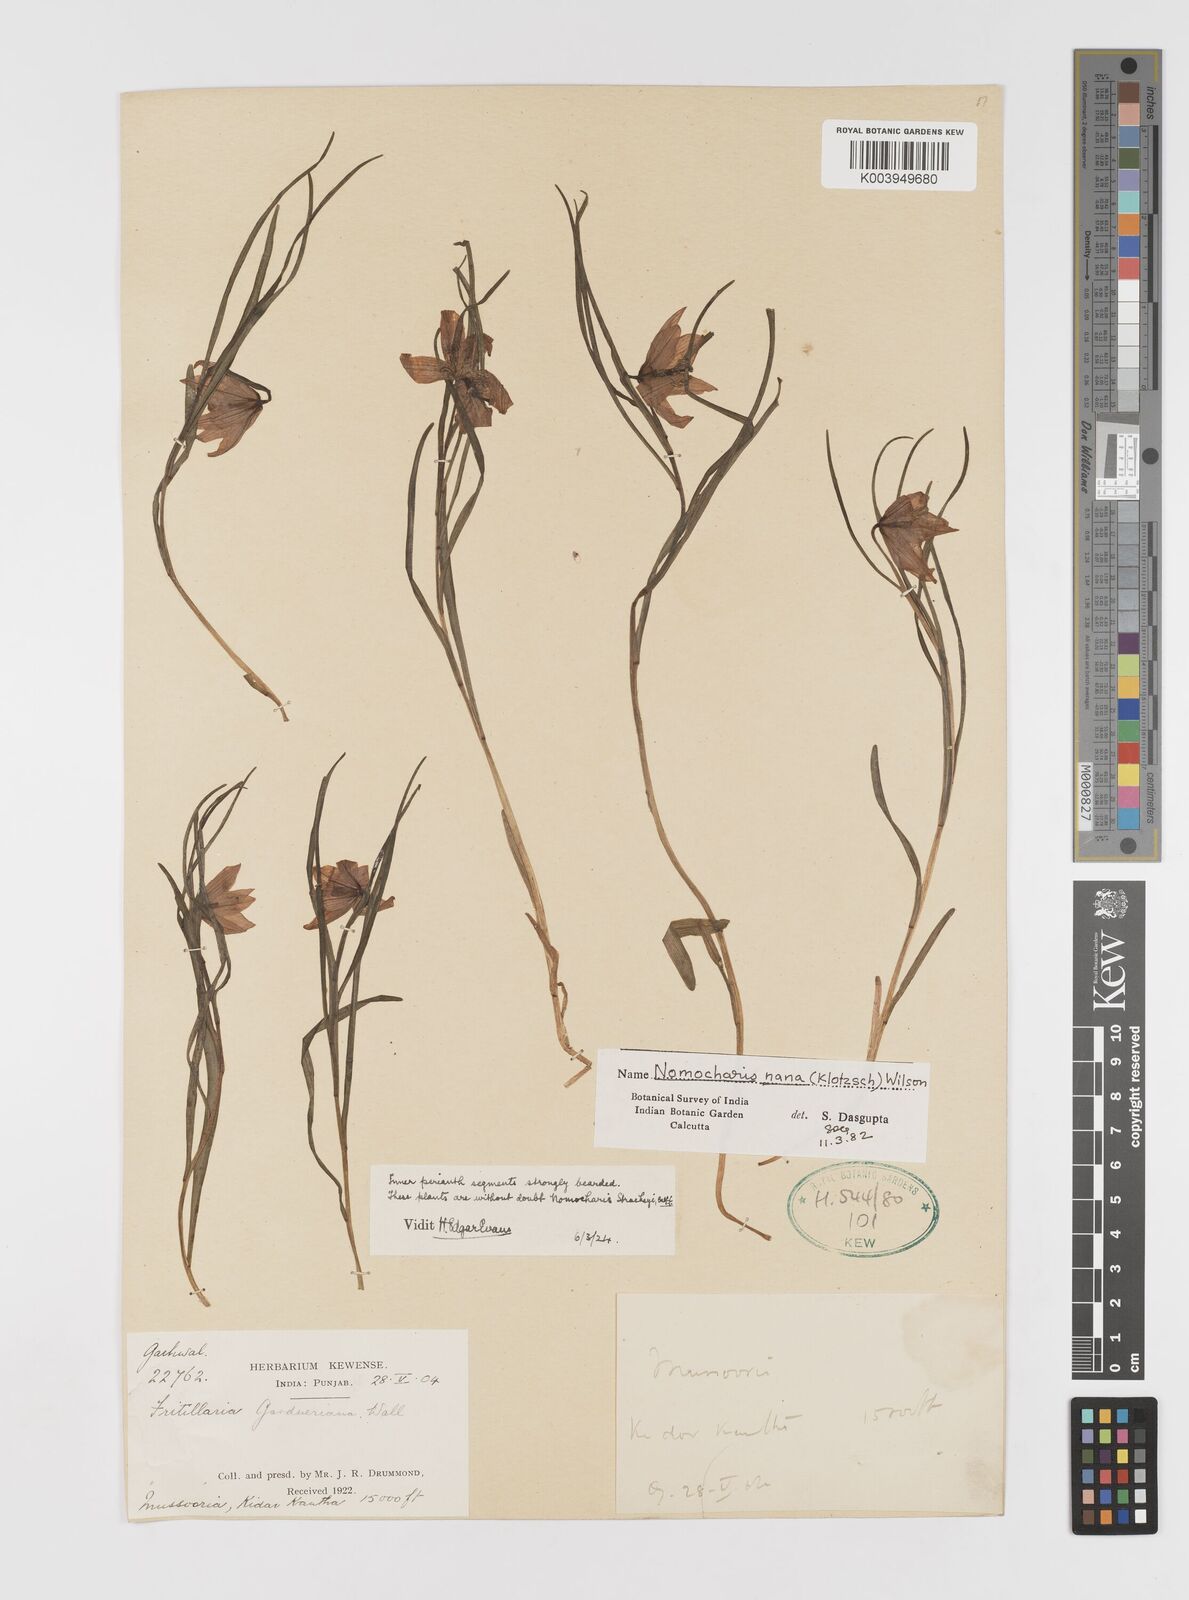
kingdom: Plantae
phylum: Tracheophyta
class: Liliopsida
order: Liliales
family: Liliaceae
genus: Lilium
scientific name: Lilium nanum
